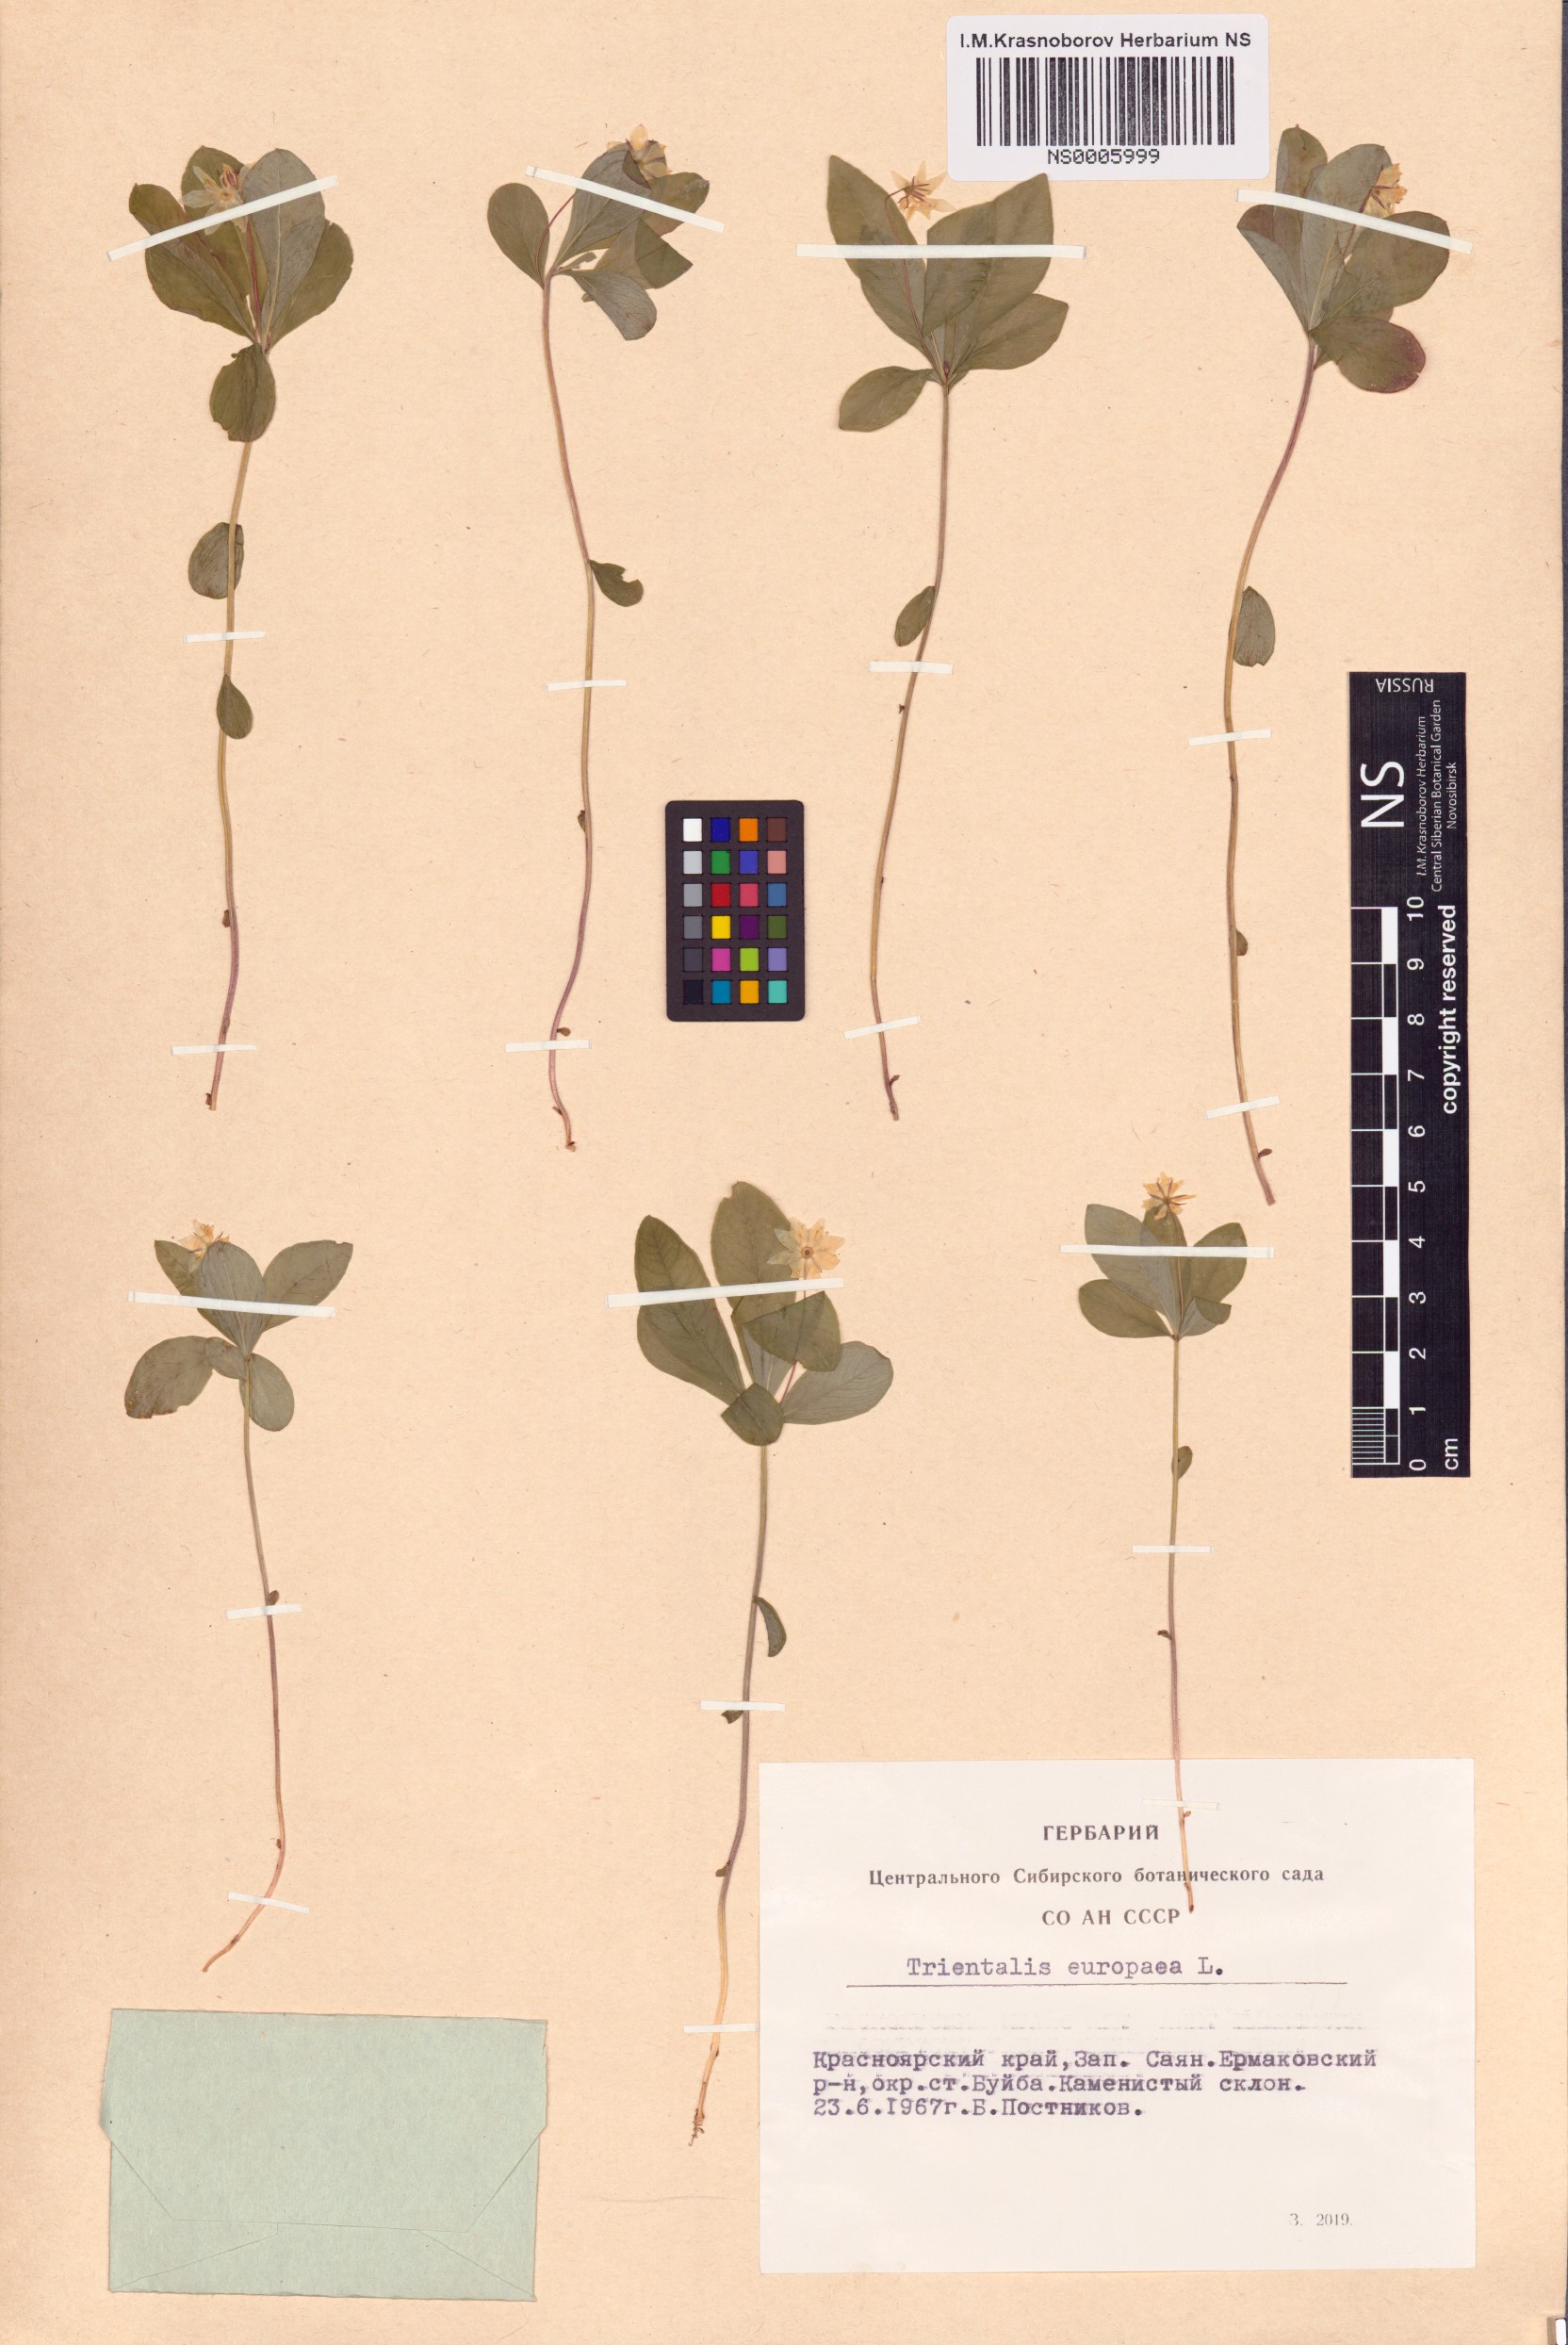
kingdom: Plantae
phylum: Tracheophyta
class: Magnoliopsida
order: Ericales
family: Primulaceae
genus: Lysimachia
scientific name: Lysimachia europaea
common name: Arctic starflower
